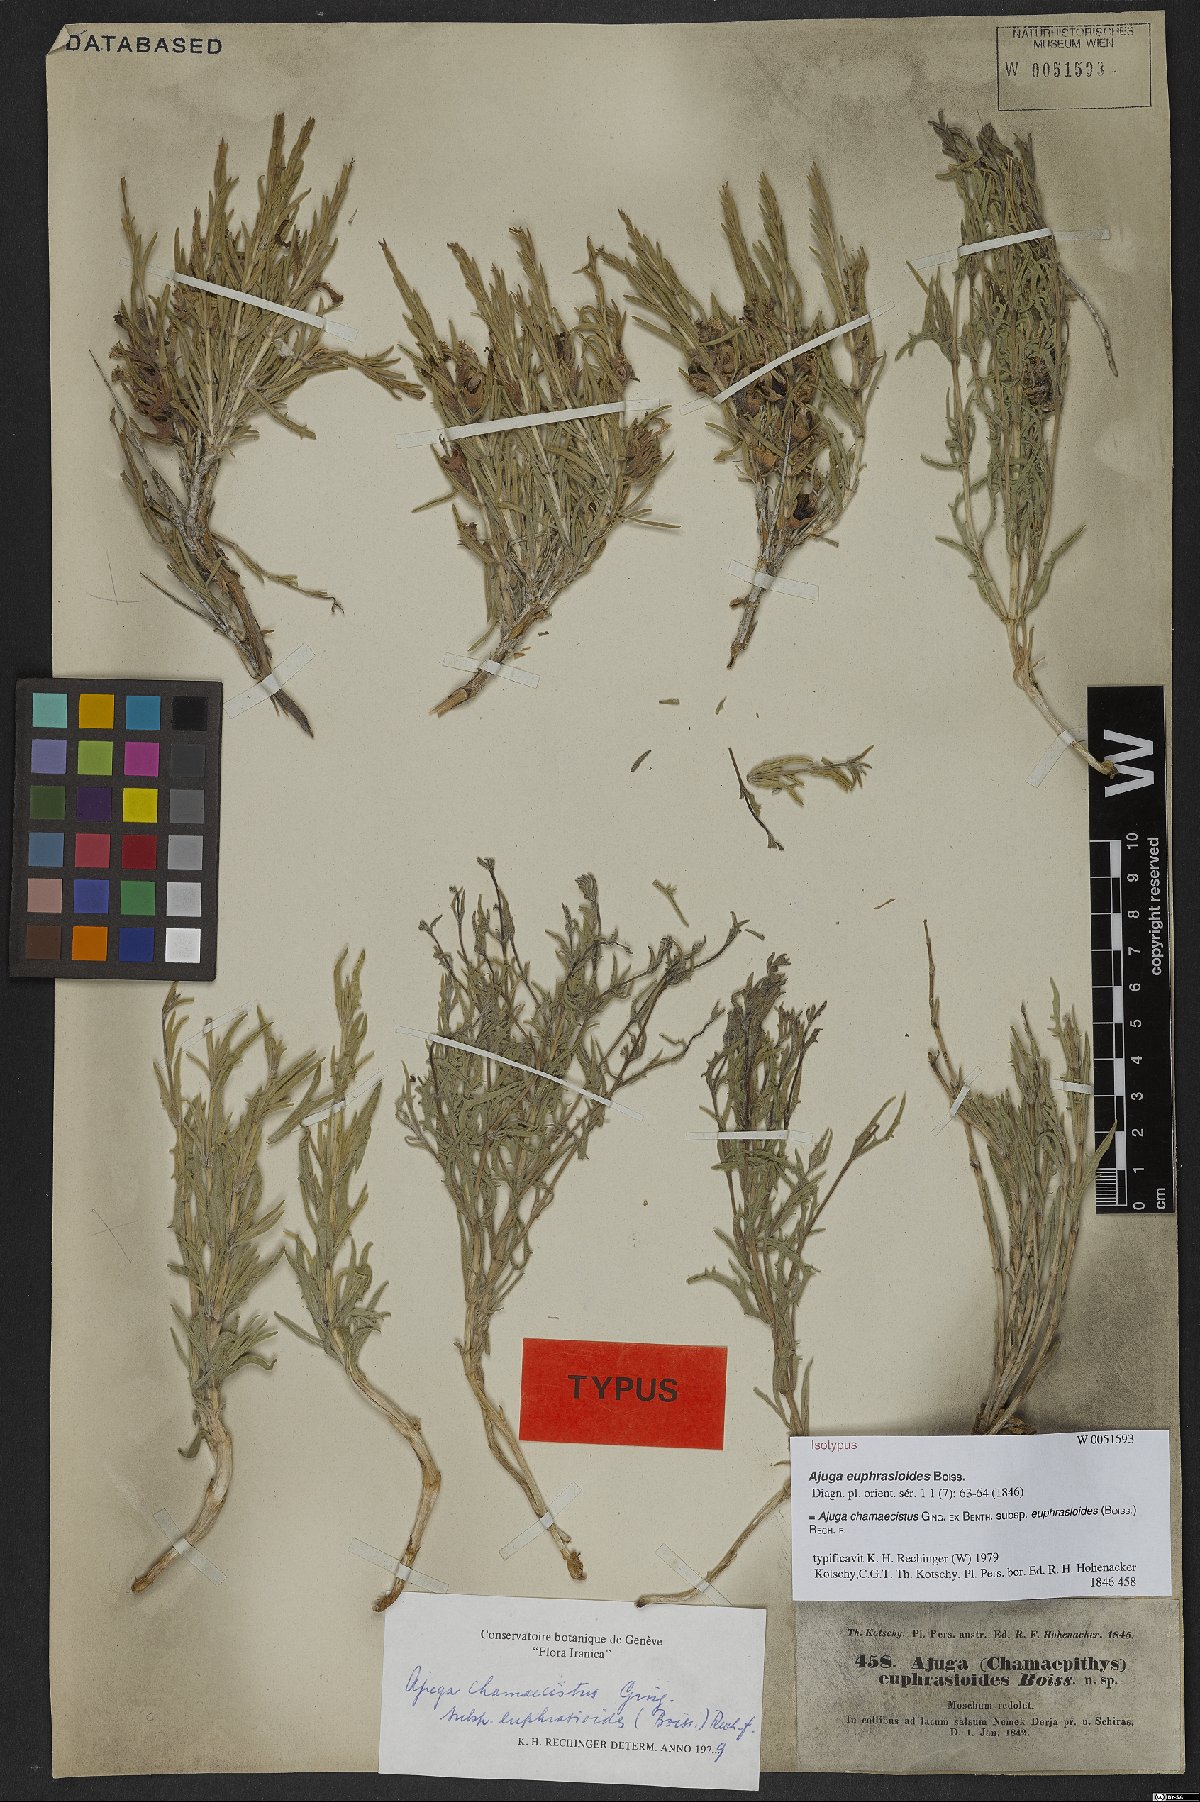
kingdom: Plantae
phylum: Tracheophyta
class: Magnoliopsida
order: Lamiales
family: Lamiaceae
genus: Ajuga
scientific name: Ajuga chamaecistus
